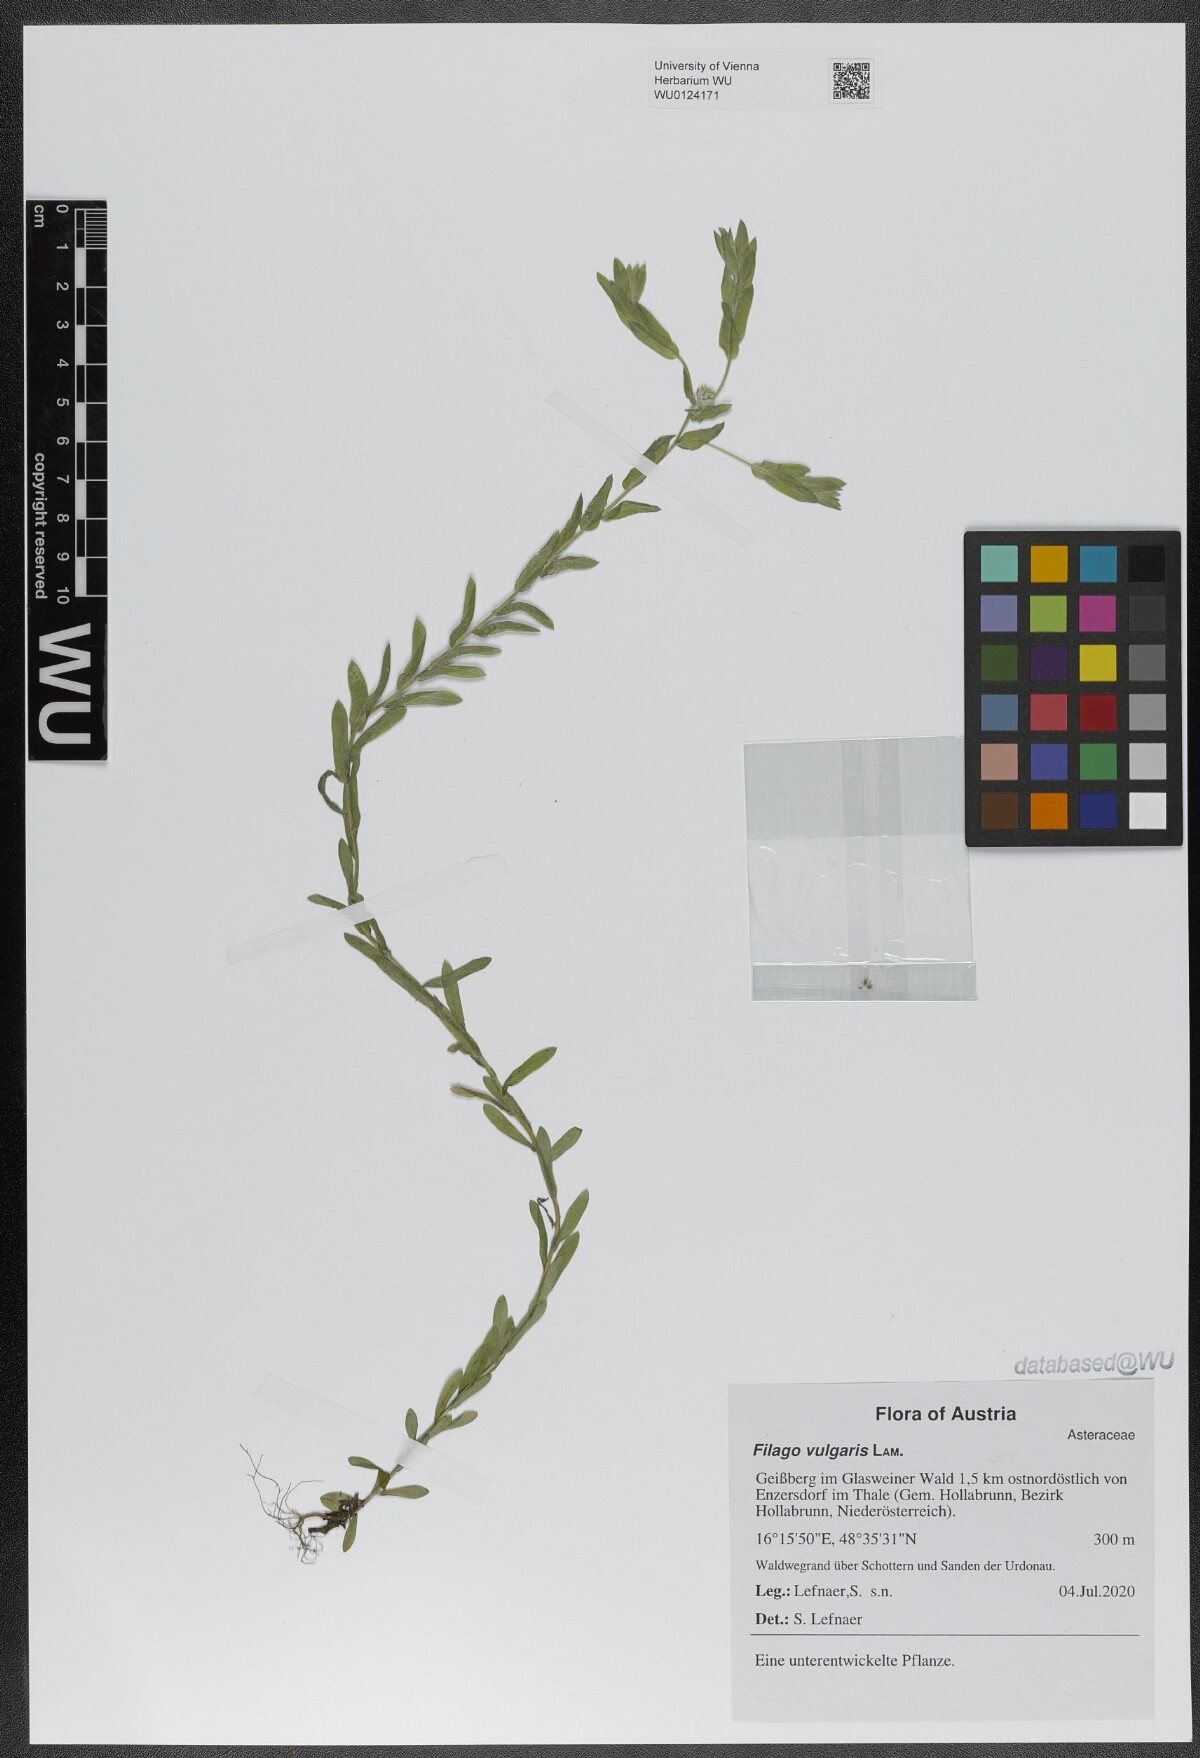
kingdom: Plantae
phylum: Tracheophyta
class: Magnoliopsida
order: Asterales
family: Asteraceae
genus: Filago
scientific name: Filago germanica
